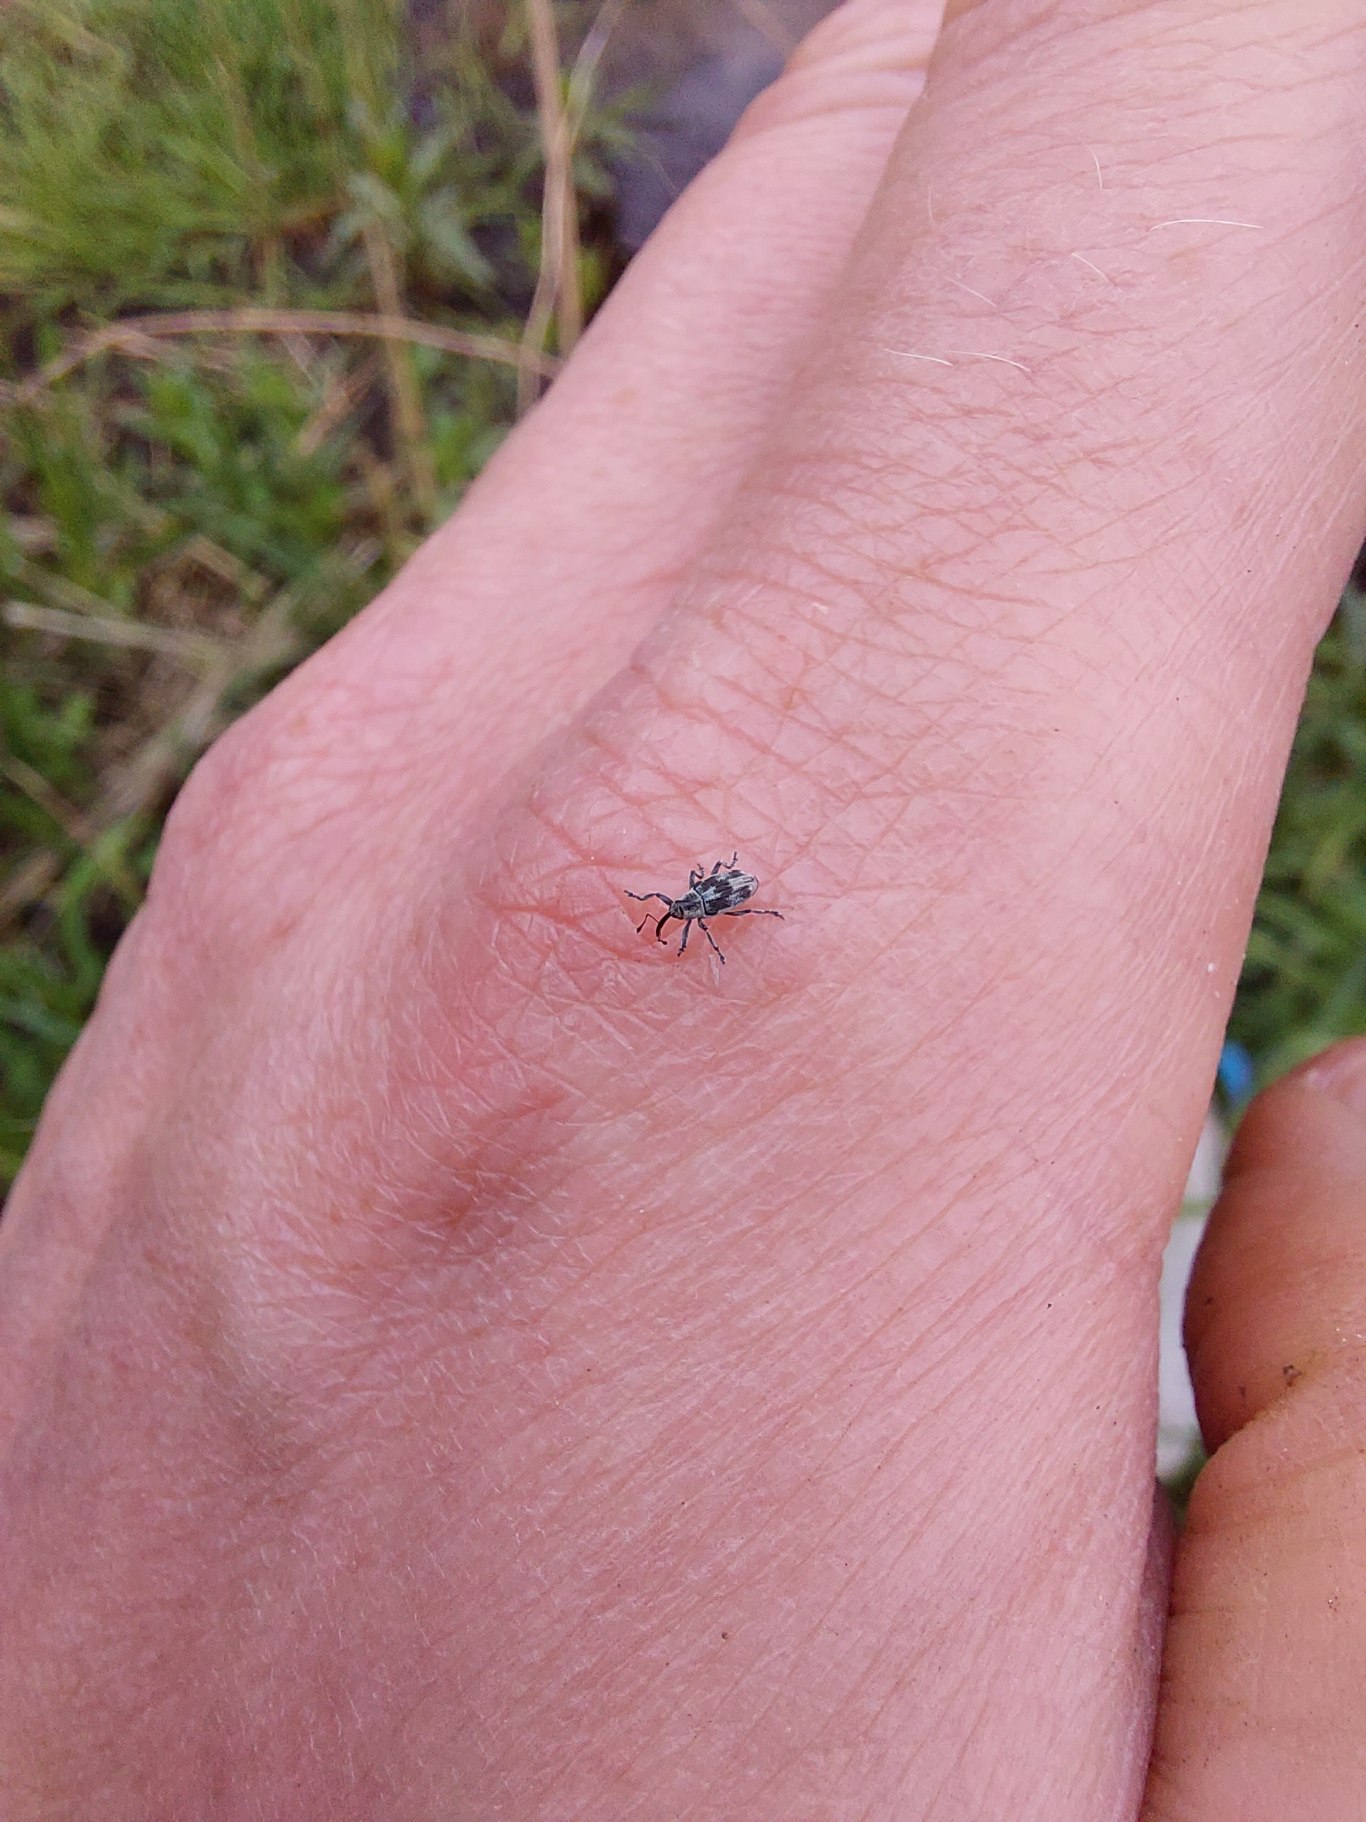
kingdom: Animalia
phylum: Arthropoda
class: Insecta
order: Coleoptera
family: Curculionidae
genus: Poophagus
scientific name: Poophagus sisymbrii
